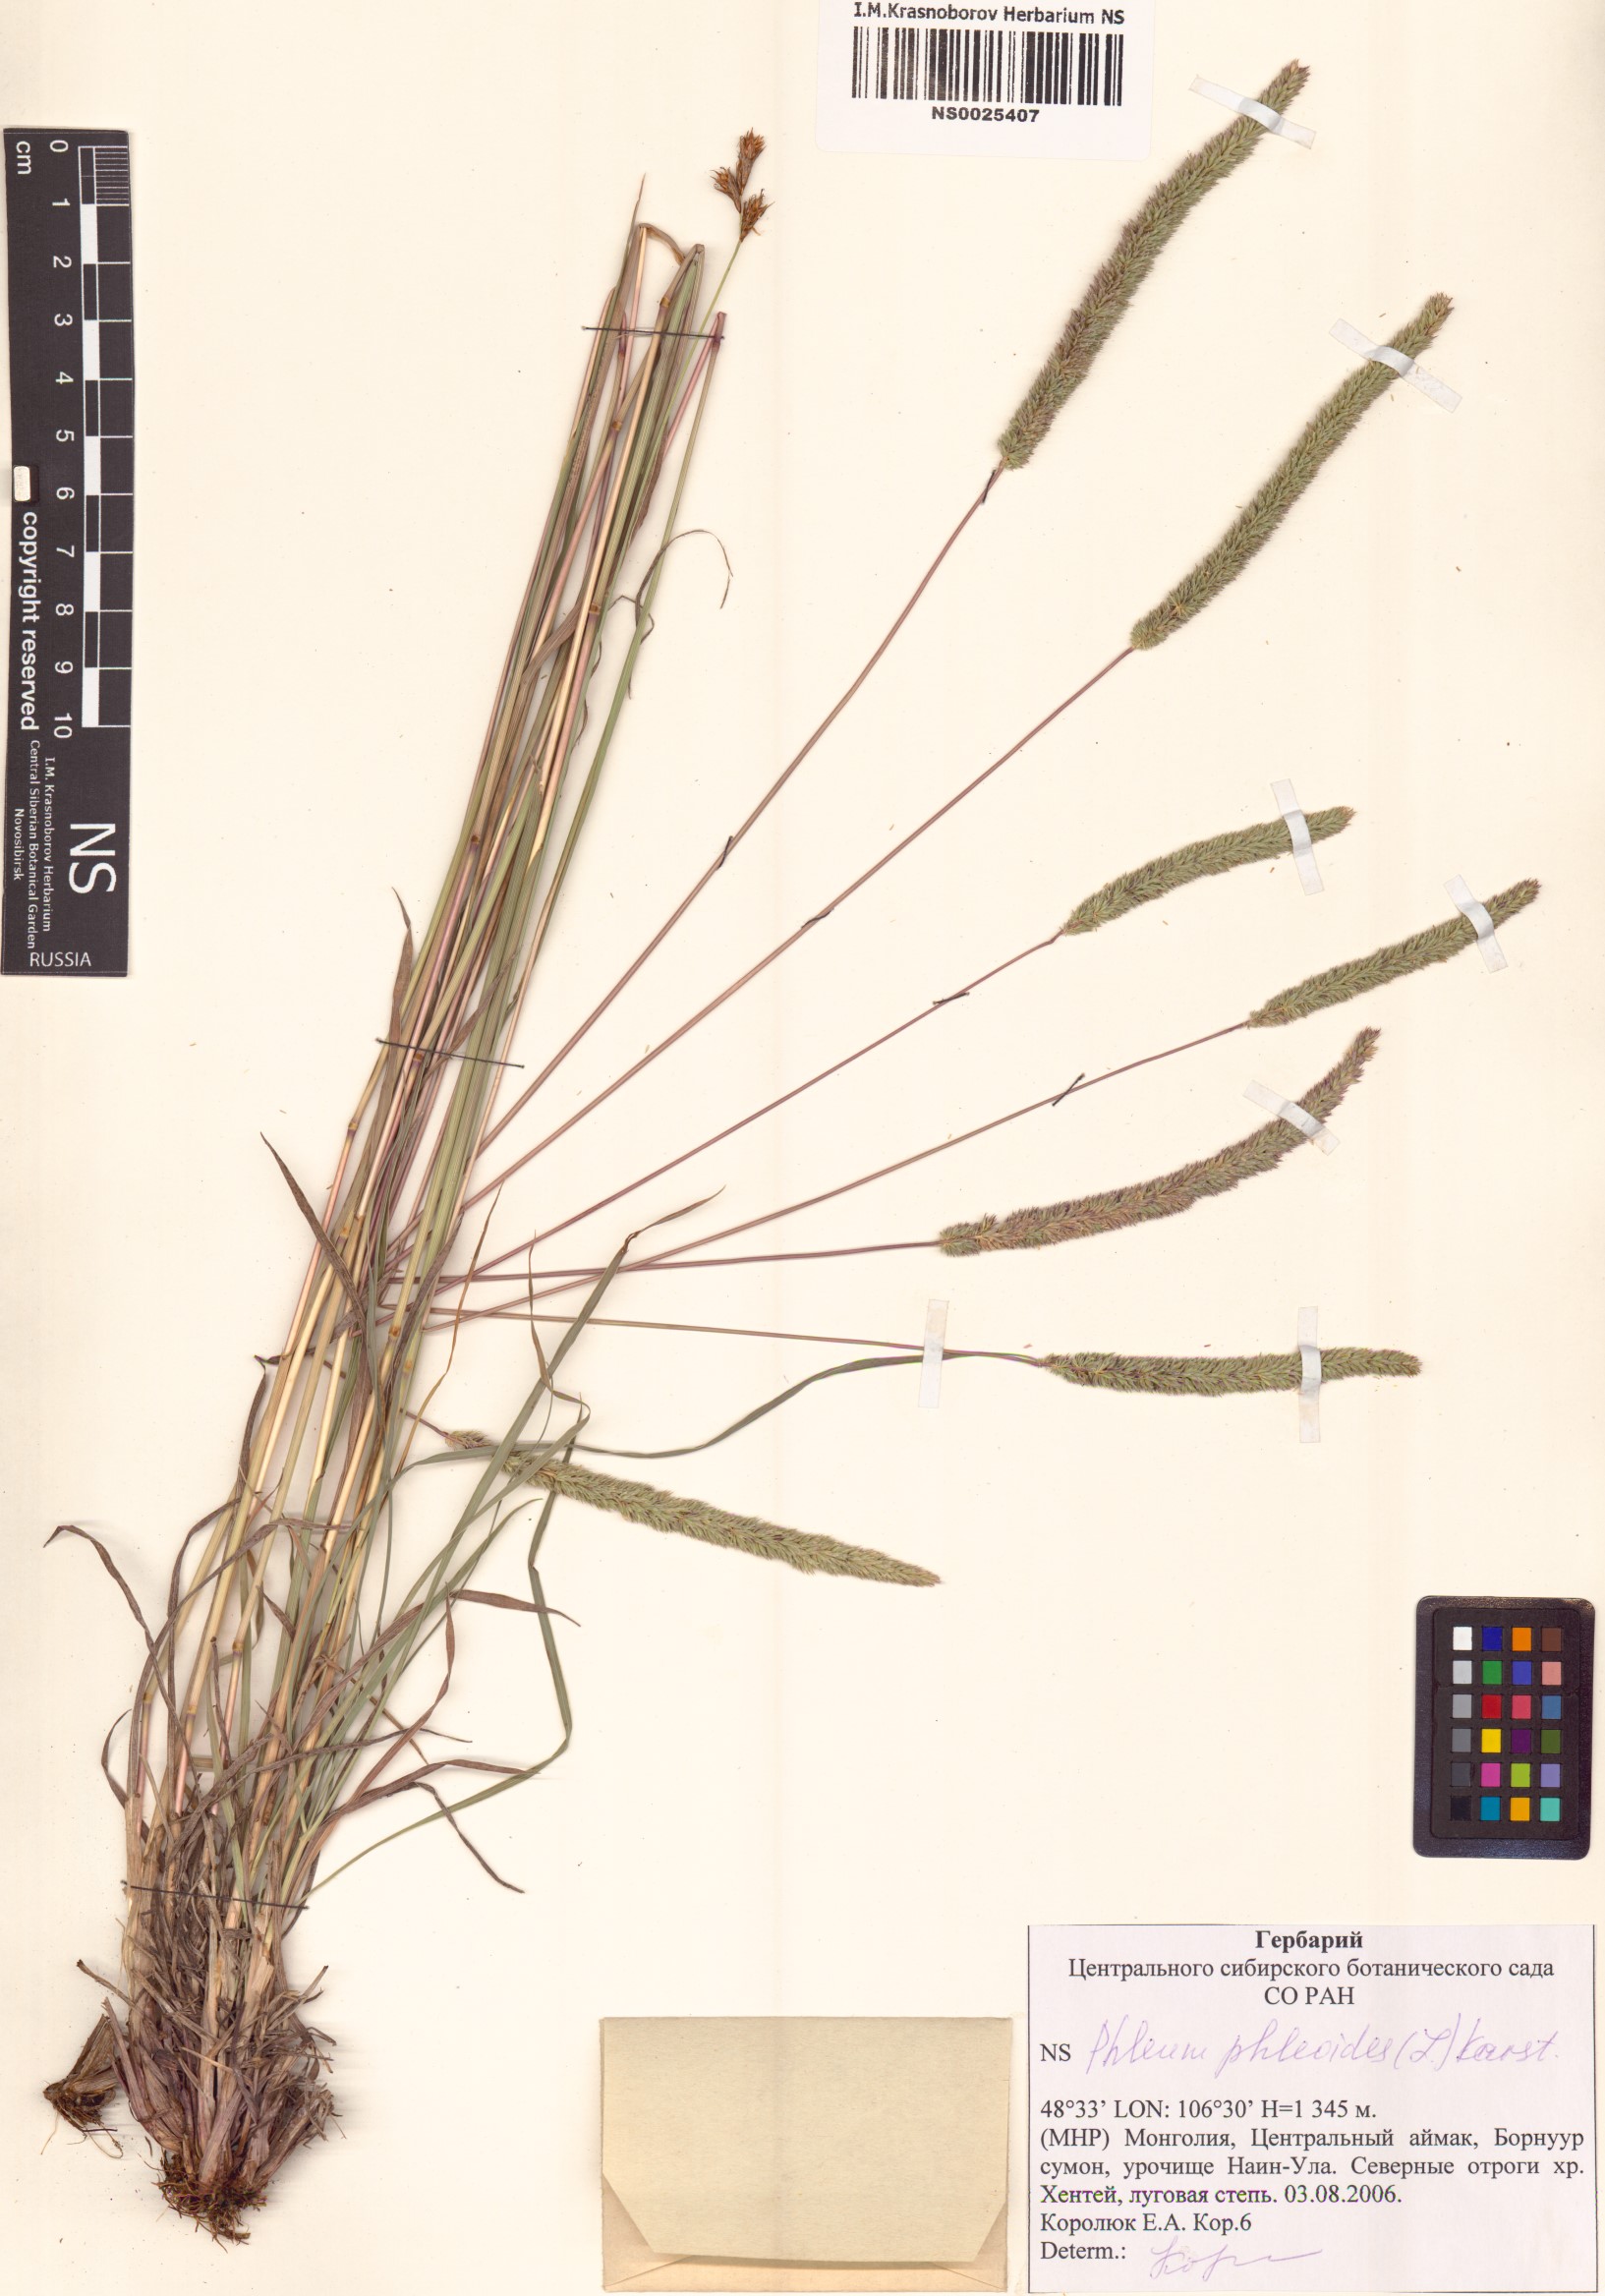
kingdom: Plantae
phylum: Tracheophyta
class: Liliopsida
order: Poales
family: Poaceae
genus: Phleum
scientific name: Phleum phleoides
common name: Purple-stem cat's-tail
